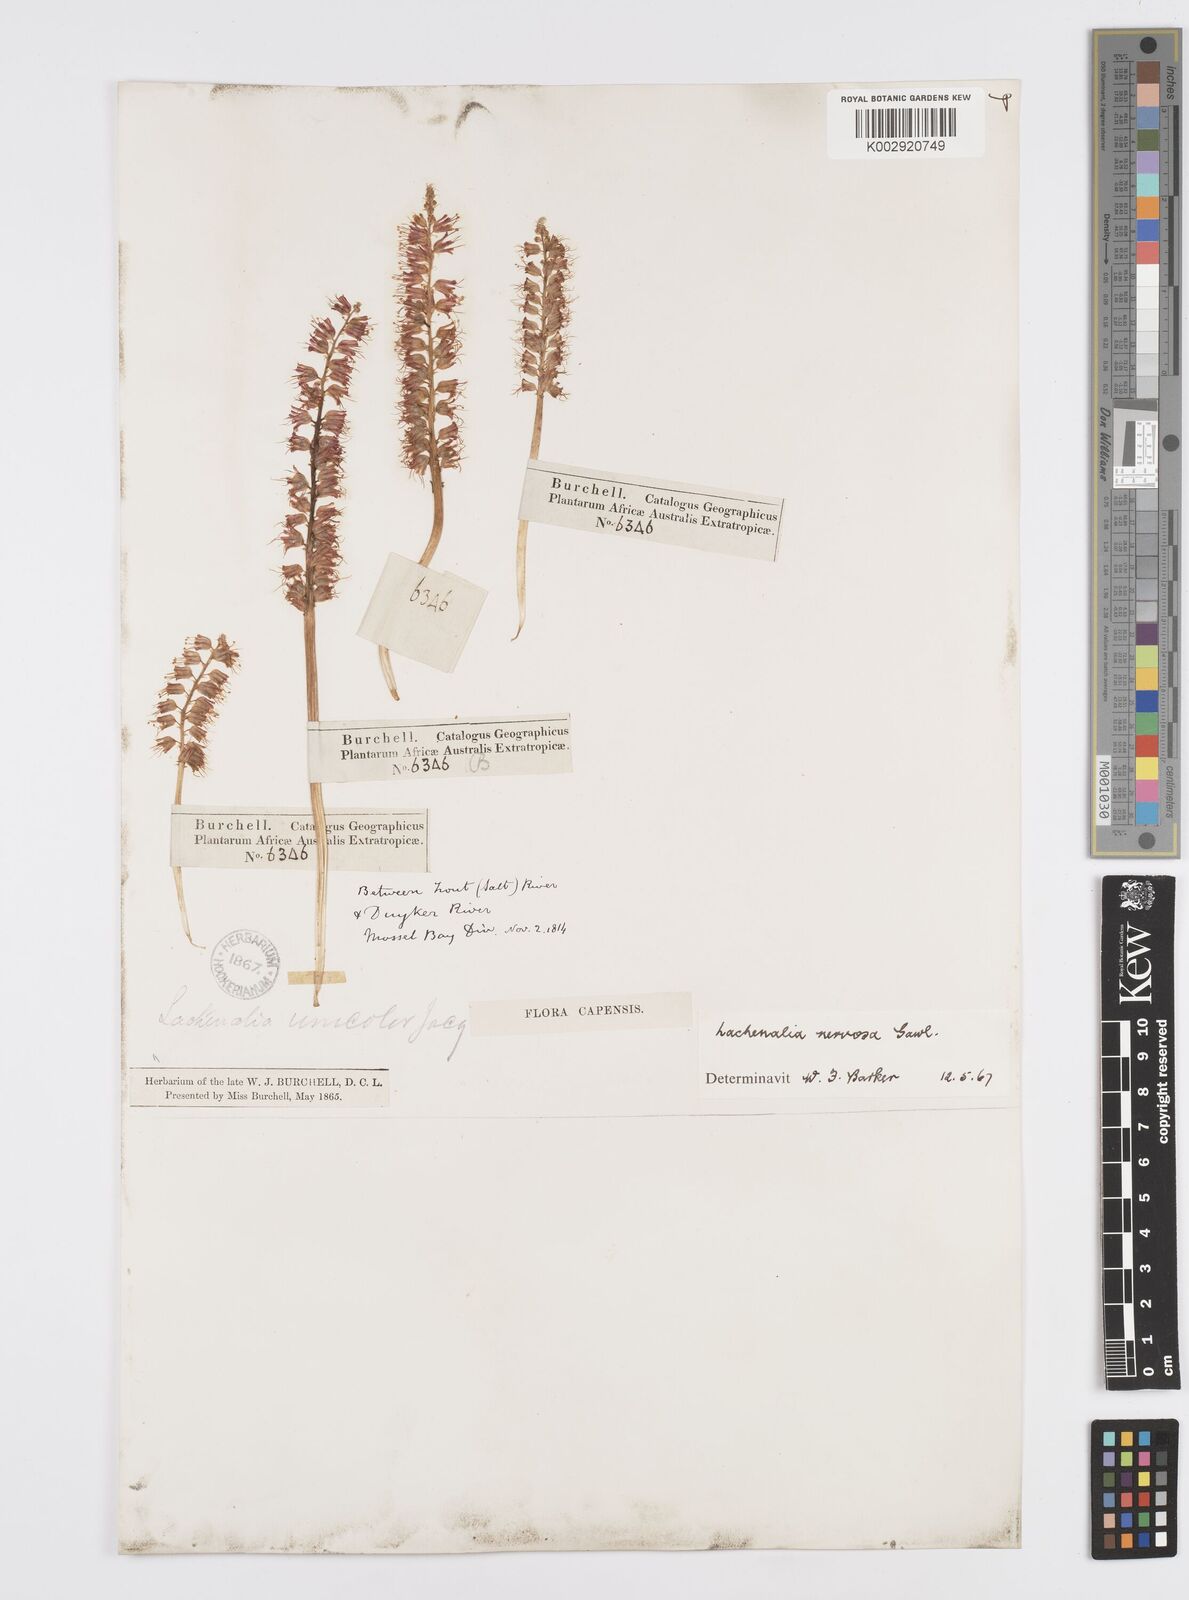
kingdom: Plantae
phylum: Tracheophyta
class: Liliopsida
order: Asparagales
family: Asparagaceae
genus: Lachenalia
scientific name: Lachenalia nervosa
